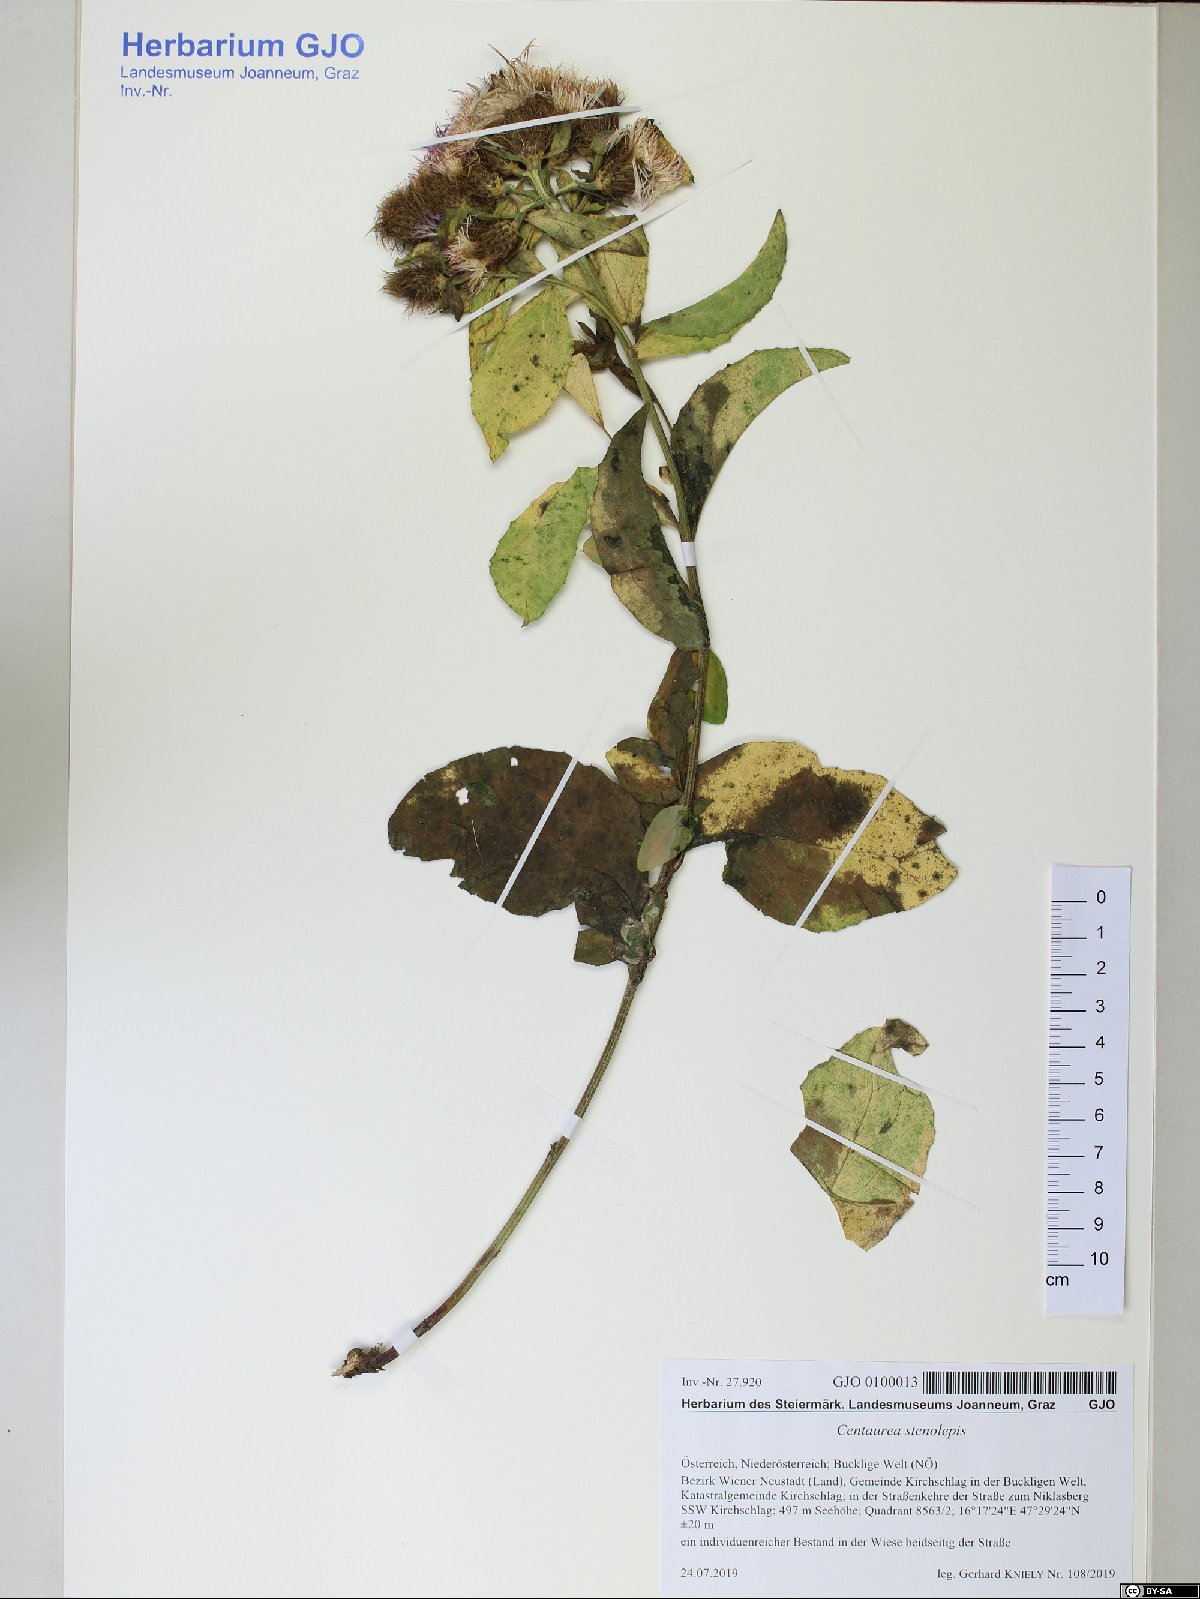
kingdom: Plantae
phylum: Tracheophyta
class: Magnoliopsida
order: Asterales
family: Asteraceae
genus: Centaurea
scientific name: Centaurea stenolepis
